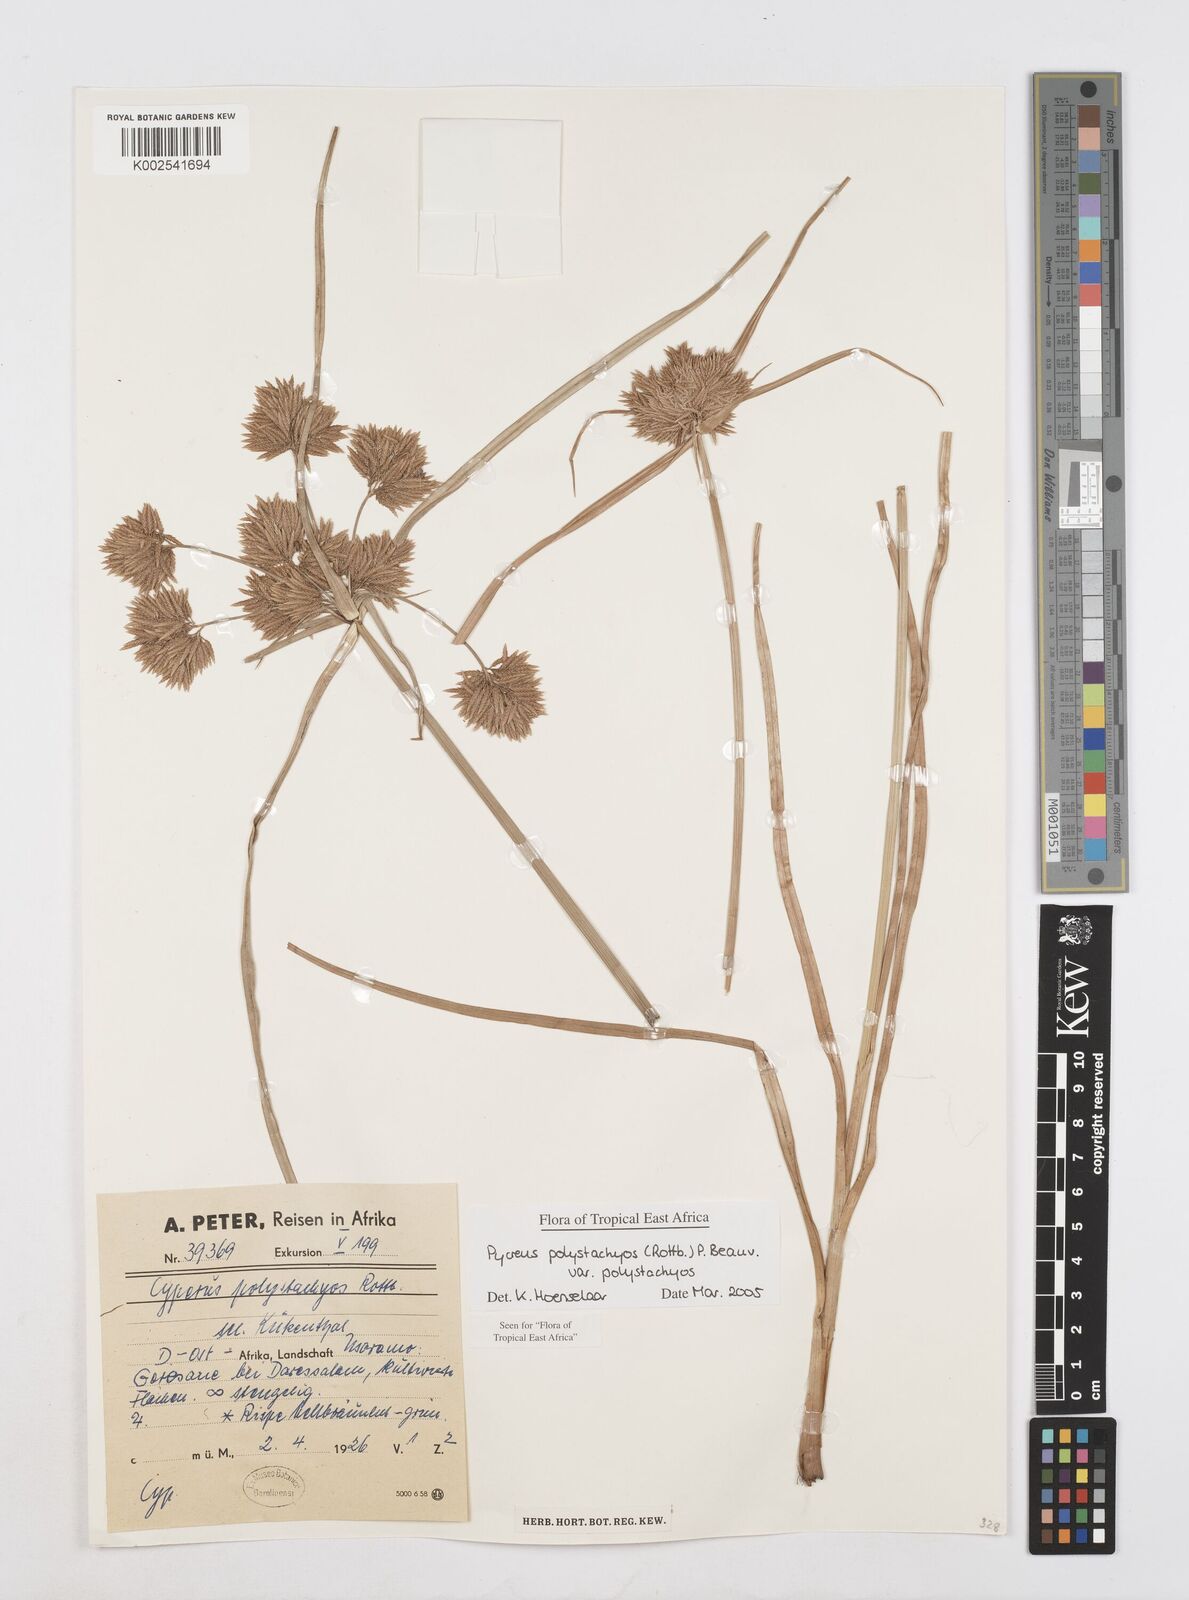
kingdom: Plantae
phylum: Tracheophyta
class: Liliopsida
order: Poales
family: Cyperaceae
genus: Cyperus
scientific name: Cyperus polystachyos
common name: Bunchy flat sedge
